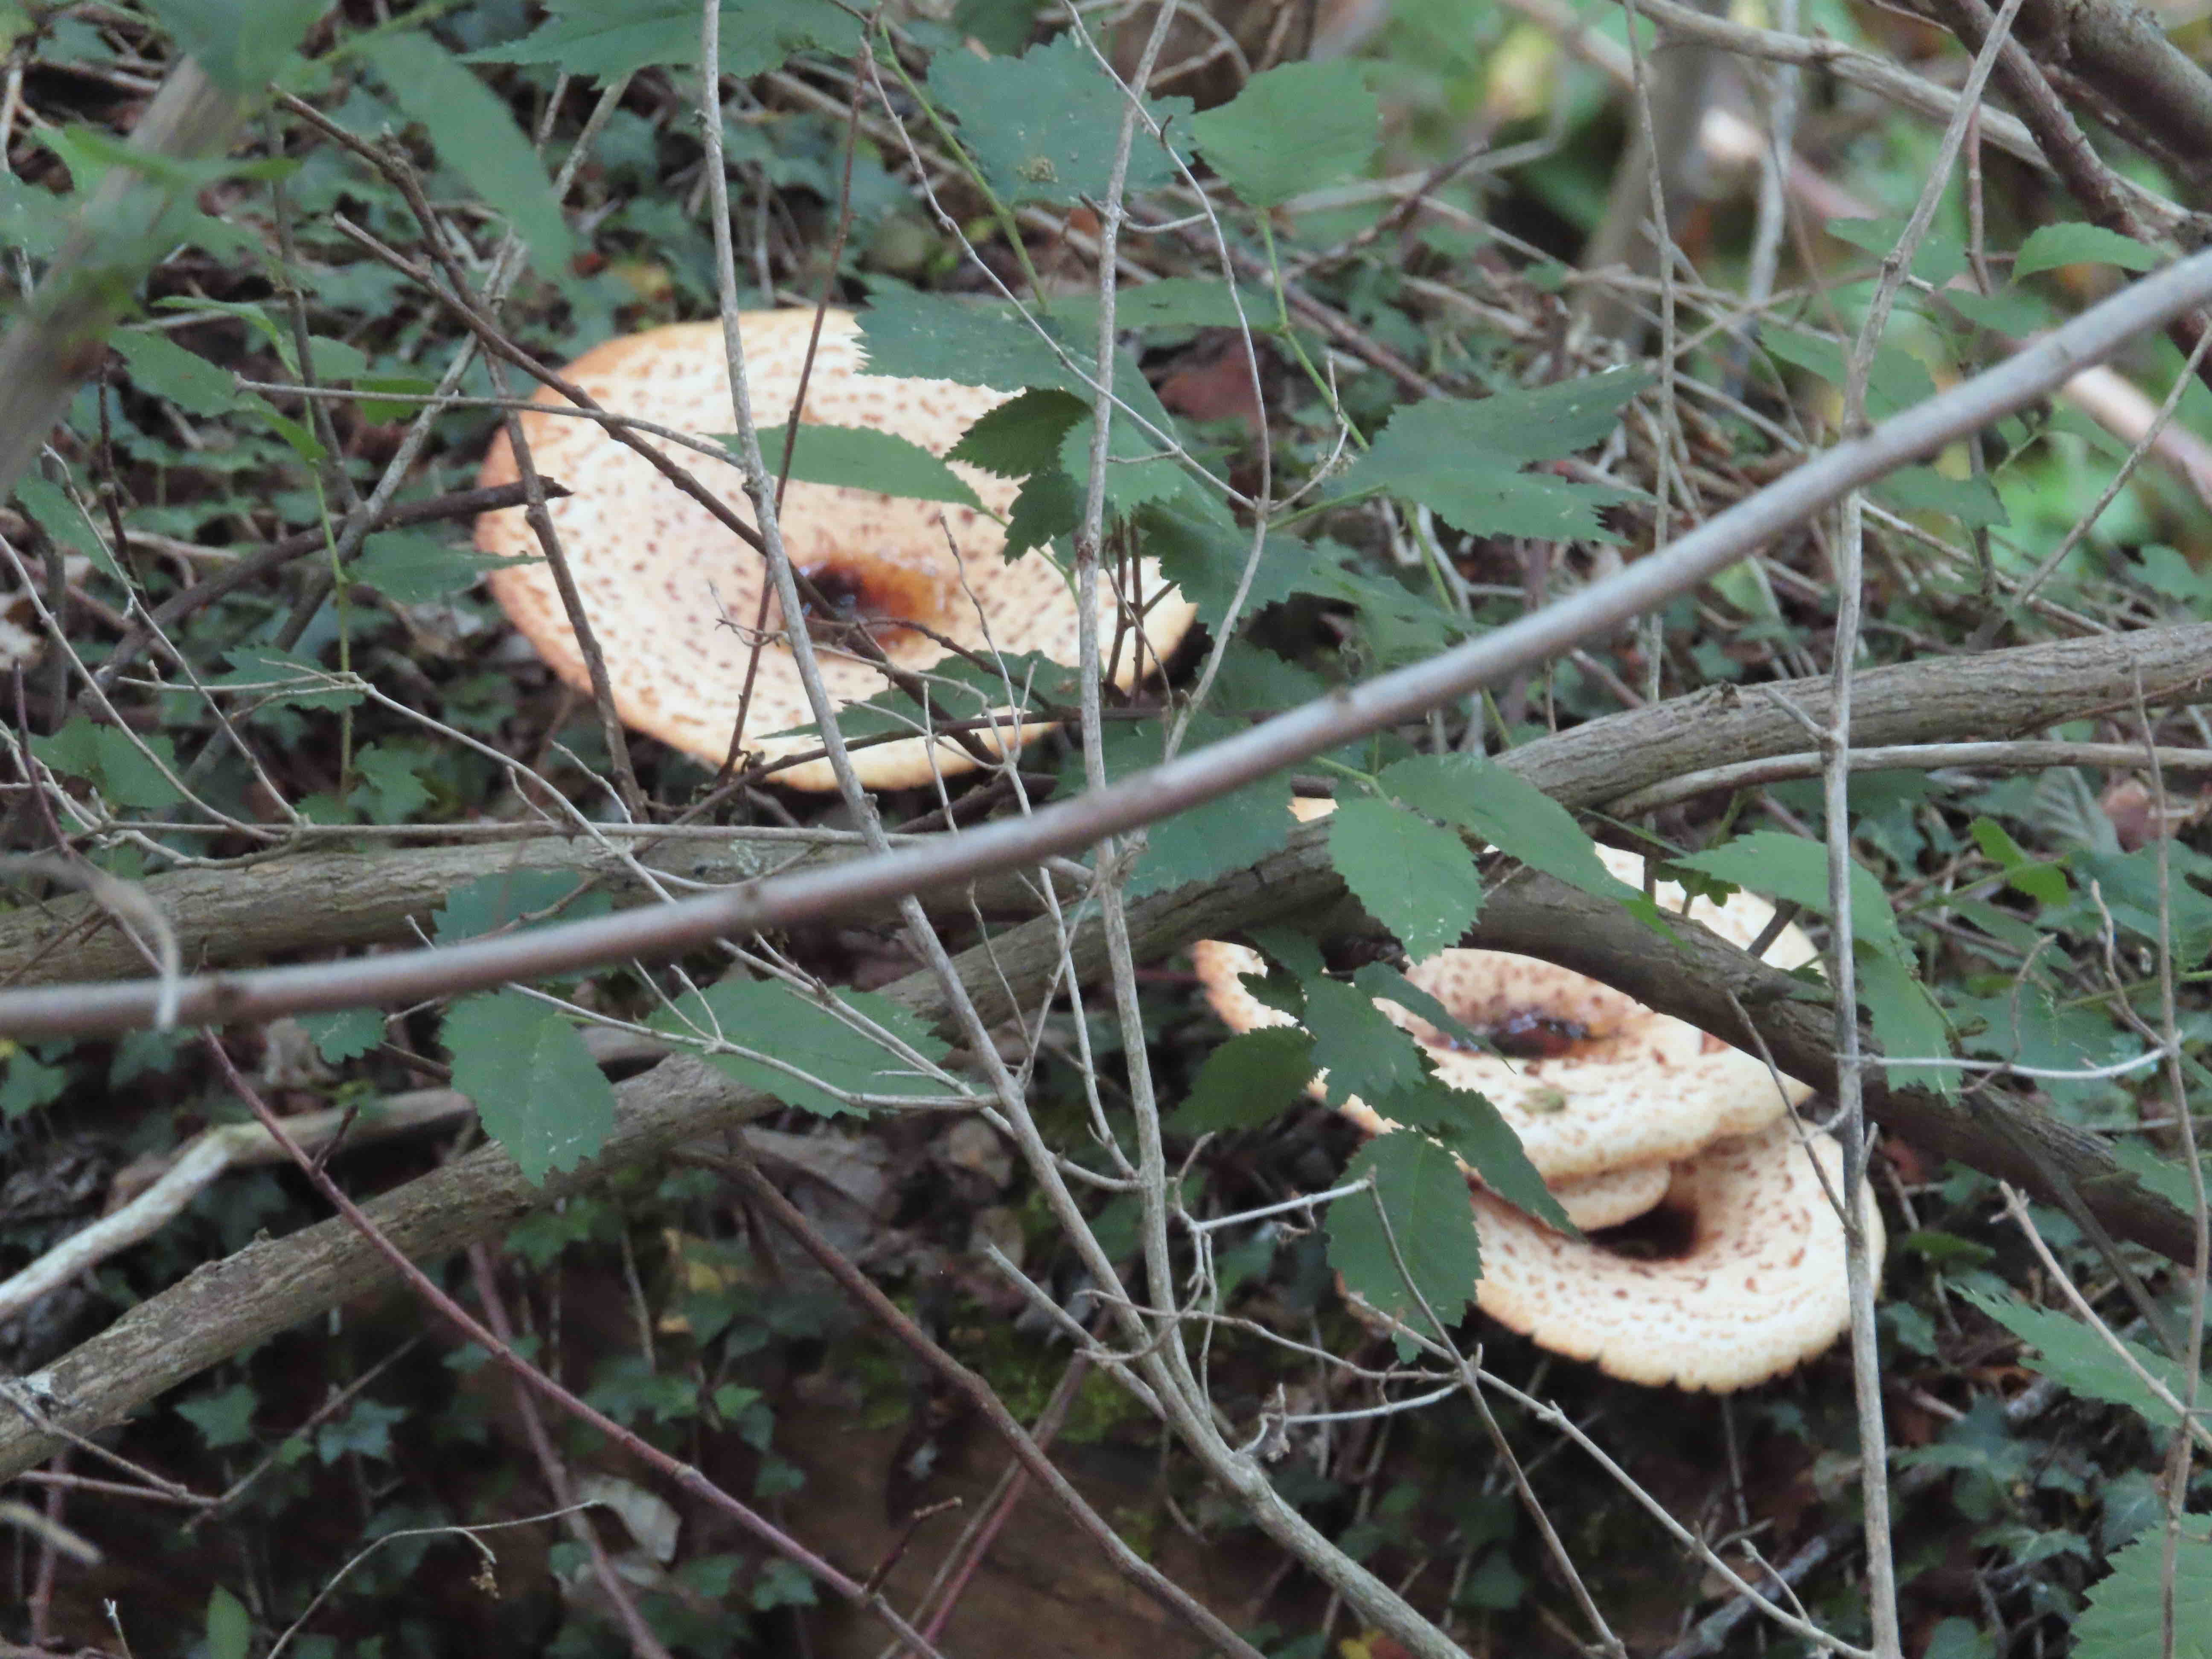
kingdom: Fungi
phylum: Basidiomycota
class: Agaricomycetes
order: Polyporales
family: Polyporaceae
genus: Cerioporus
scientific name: Cerioporus squamosus
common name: skællet stilkporesvamp
